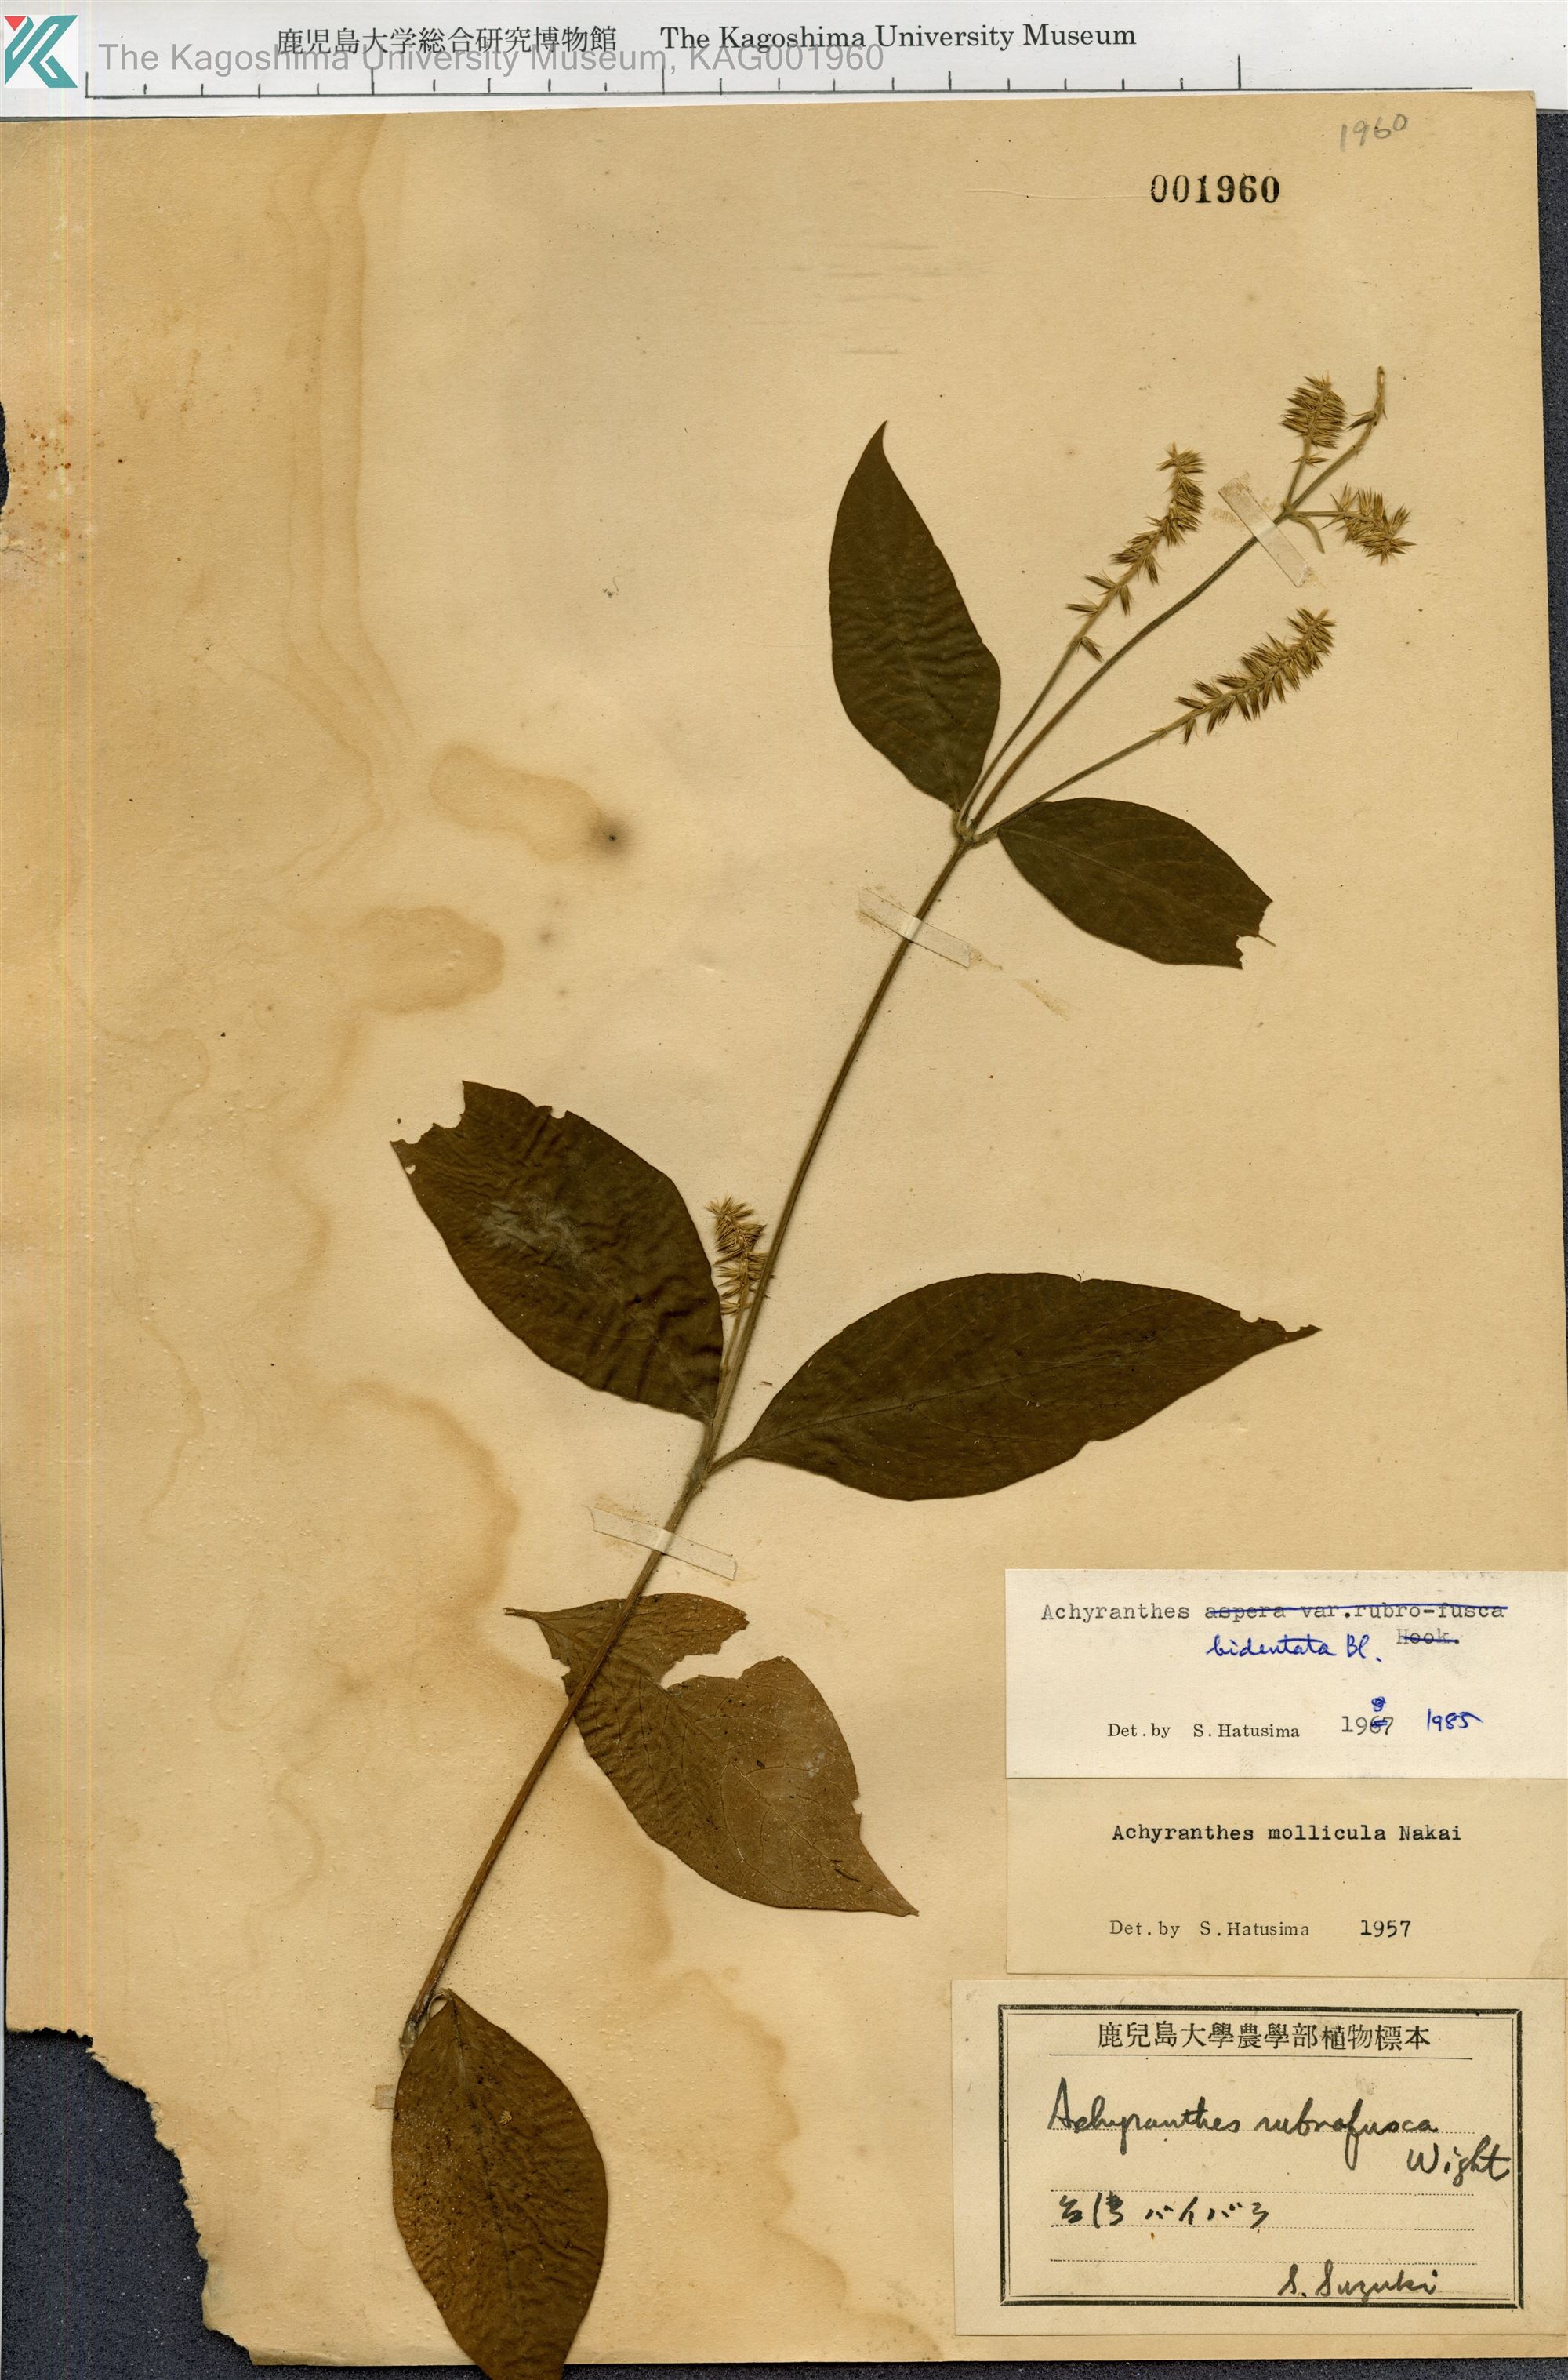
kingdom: Plantae
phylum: Tracheophyta
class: Magnoliopsida
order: Caryophyllales
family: Amaranthaceae
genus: Achyranthes
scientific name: Achyranthes bidentata
